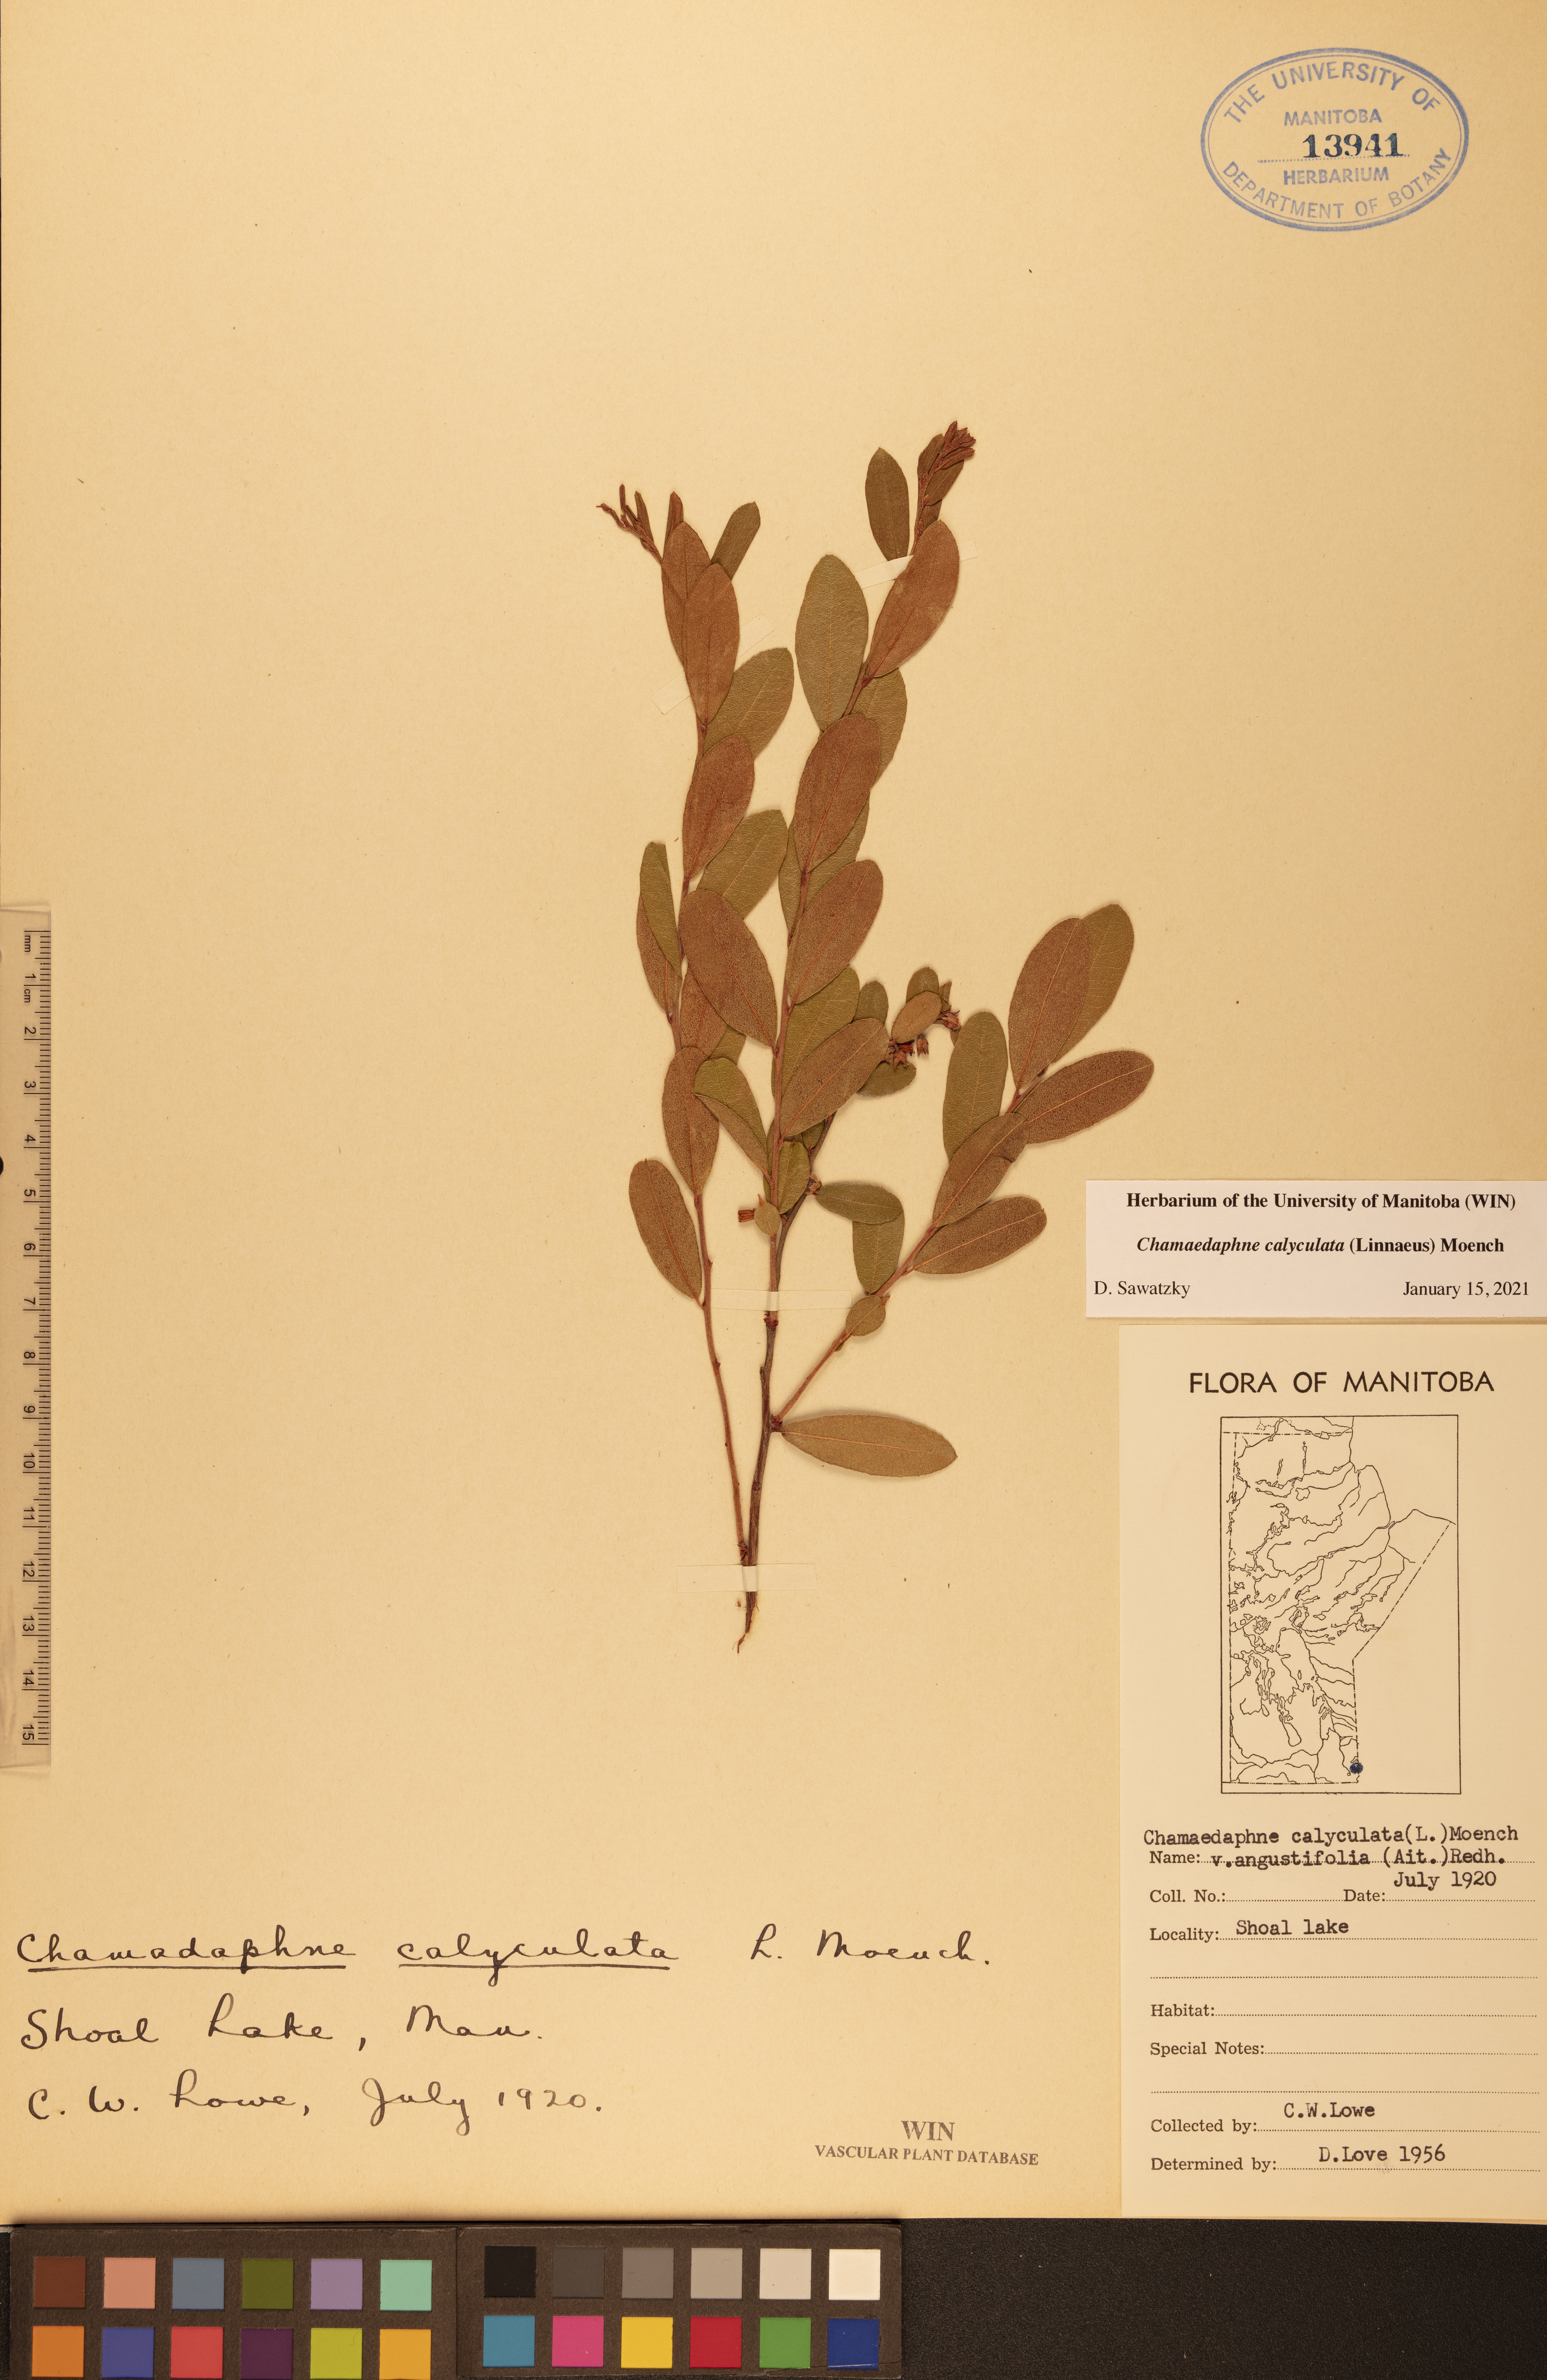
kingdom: Plantae
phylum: Tracheophyta
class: Magnoliopsida
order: Ericales
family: Ericaceae
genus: Chamaedaphne
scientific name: Chamaedaphne calyculata
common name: Leatherleaf
